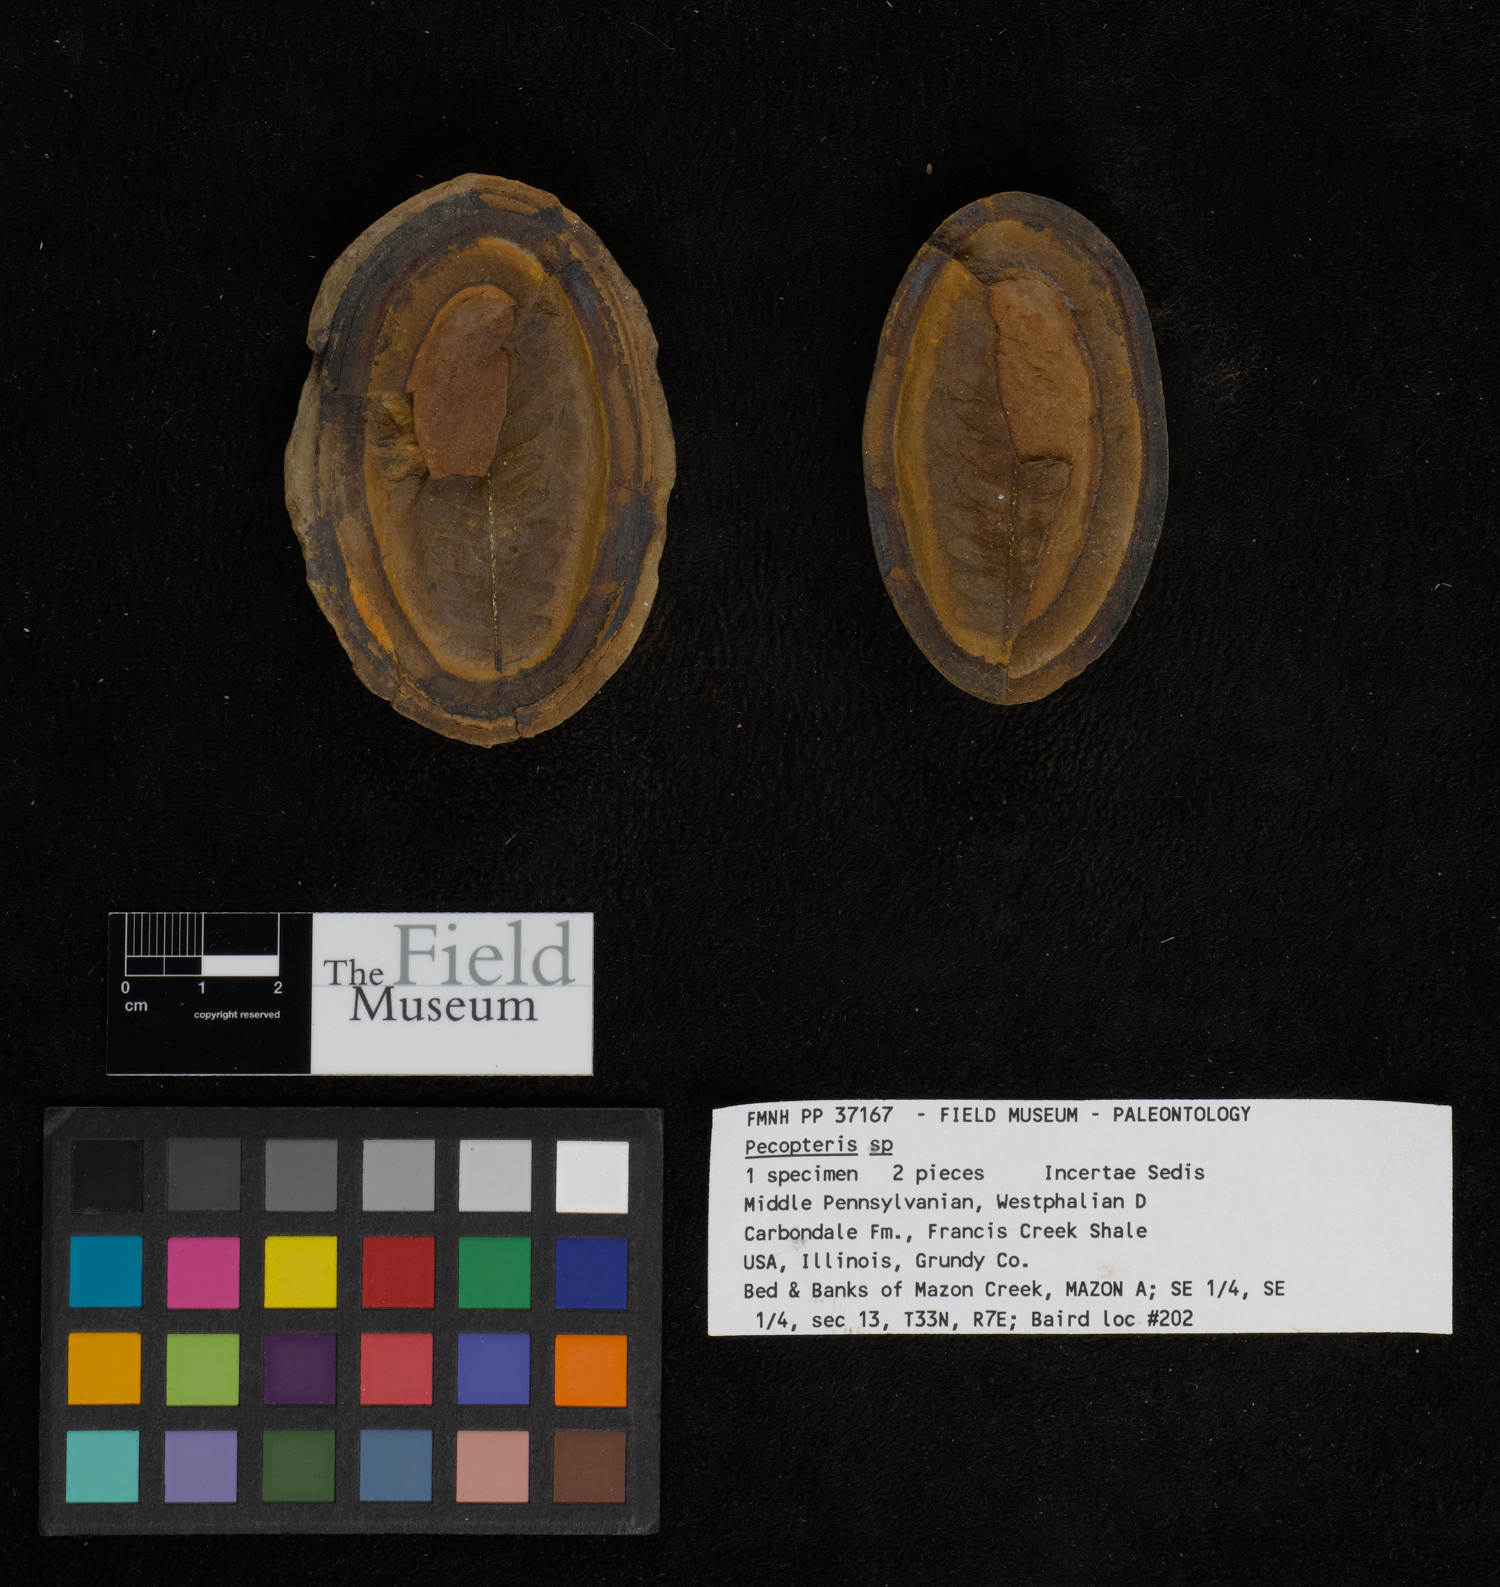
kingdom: Plantae
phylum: Tracheophyta
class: Polypodiopsida
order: Marattiales
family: Asterothecaceae
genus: Pecopteris
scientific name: Pecopteris
